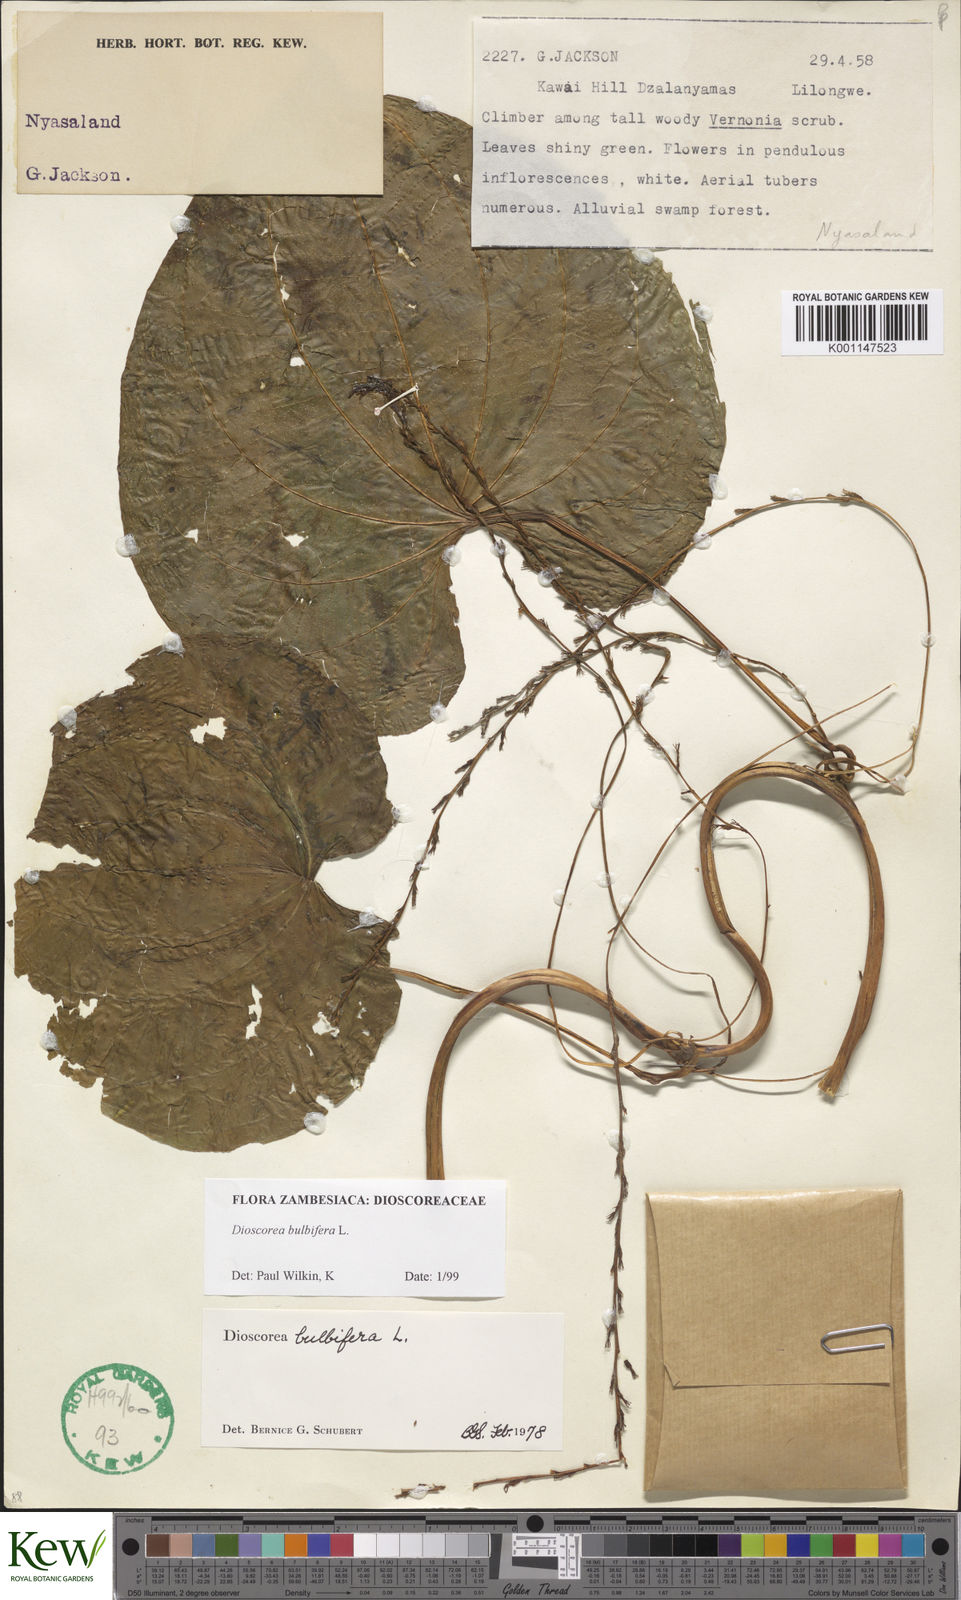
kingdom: Plantae
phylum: Tracheophyta
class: Liliopsida
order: Dioscoreales
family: Dioscoreaceae
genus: Dioscorea
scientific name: Dioscorea bulbifera
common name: Air yam
